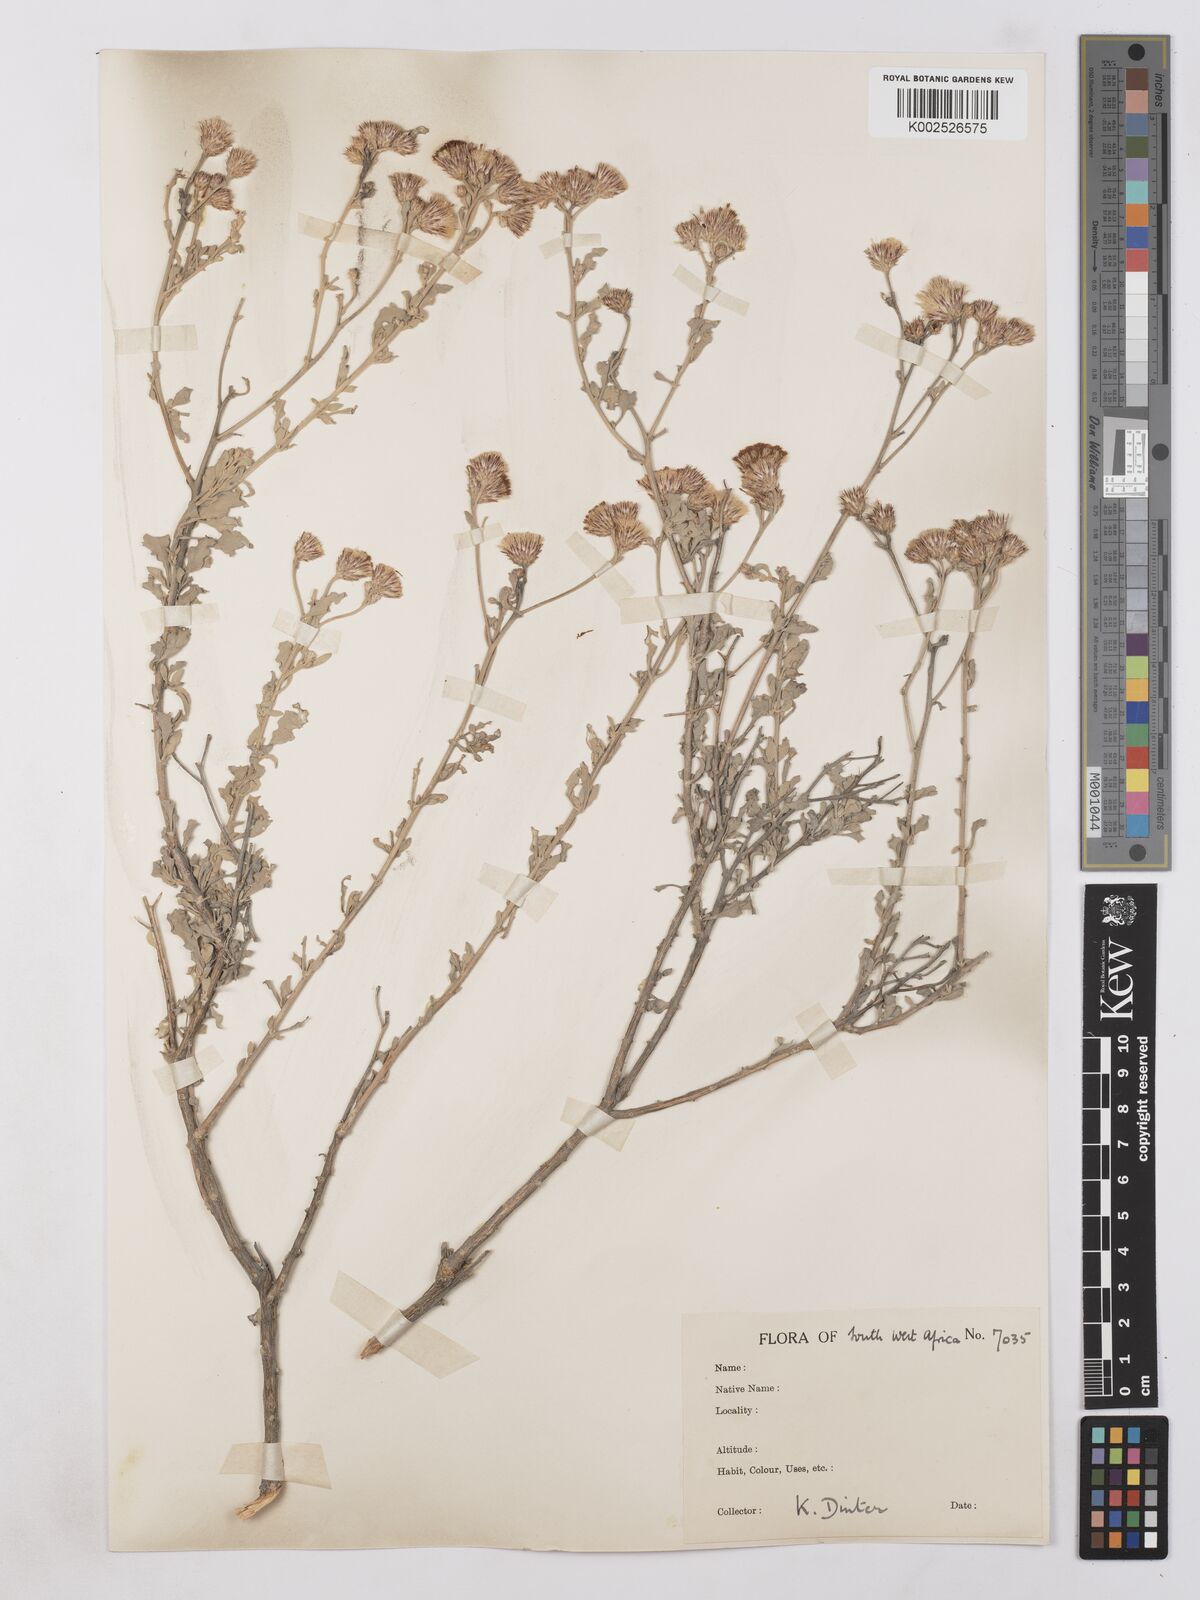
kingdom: Plantae
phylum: Tracheophyta
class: Magnoliopsida
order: Asterales
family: Asteraceae
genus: Namibithamnus
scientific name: Namibithamnus obionifolius
